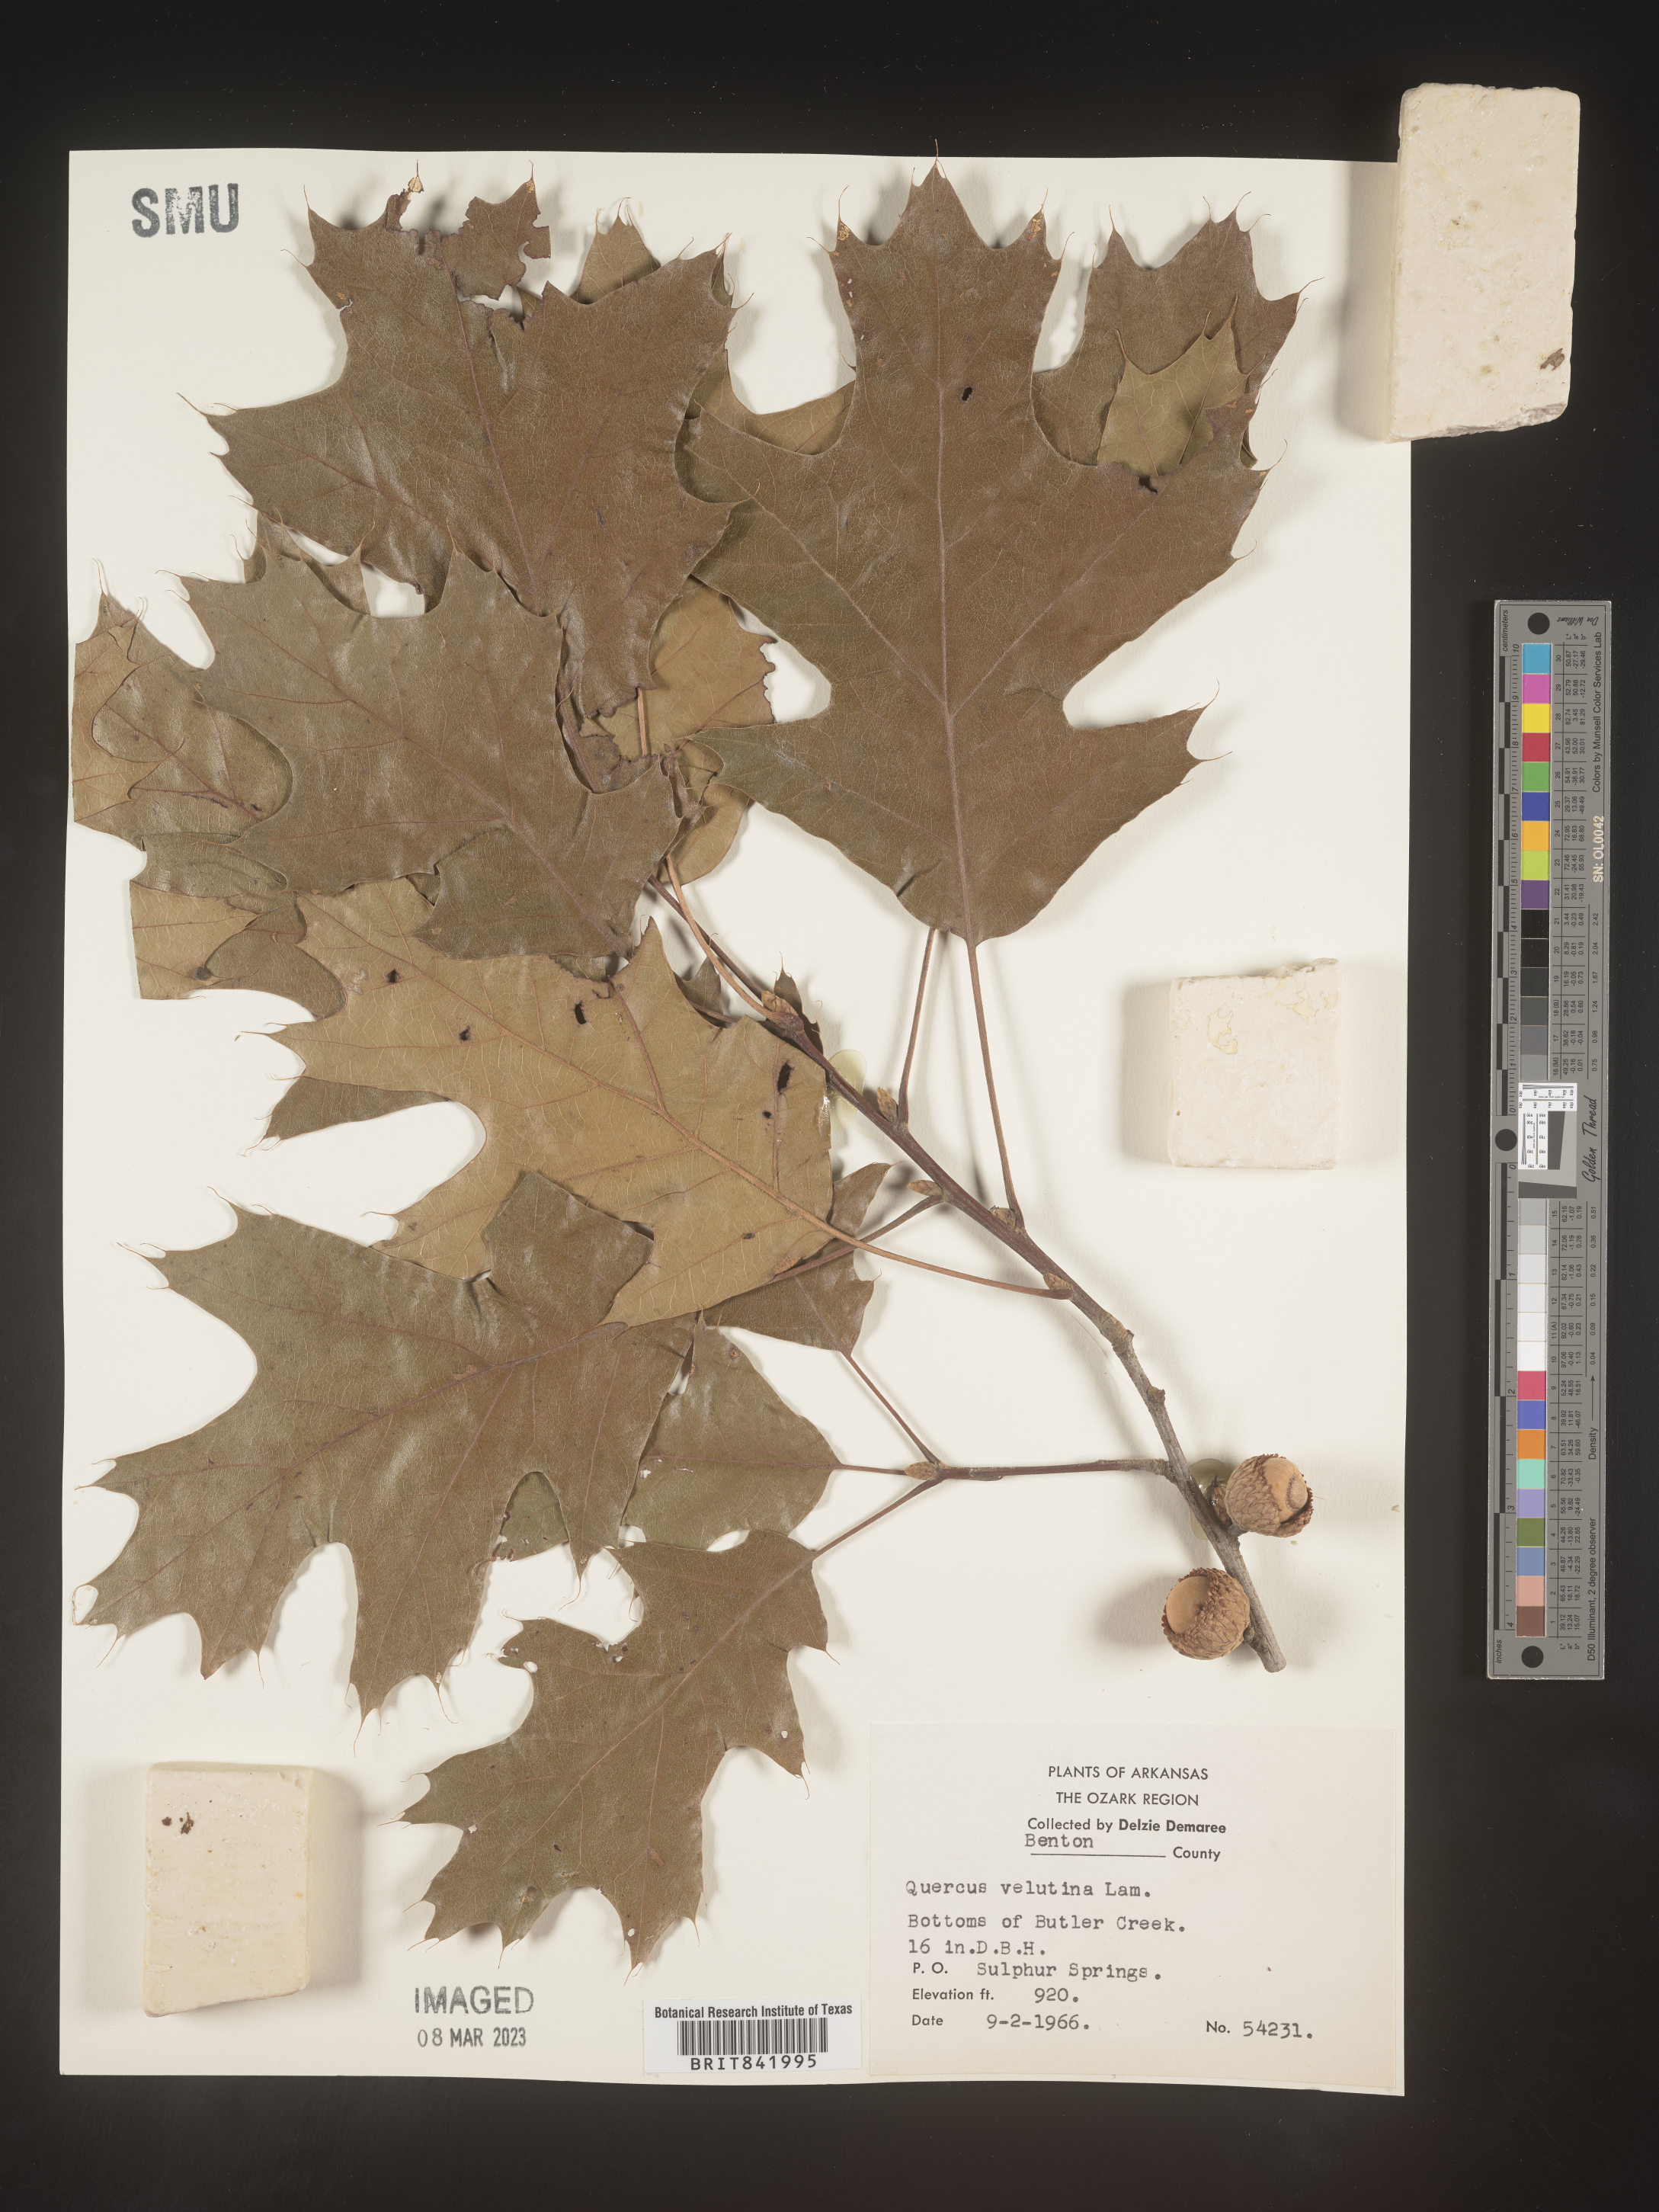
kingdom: Plantae
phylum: Tracheophyta
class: Magnoliopsida
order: Fagales
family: Fagaceae
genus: Quercus
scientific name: Quercus velutina
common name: Black oak
